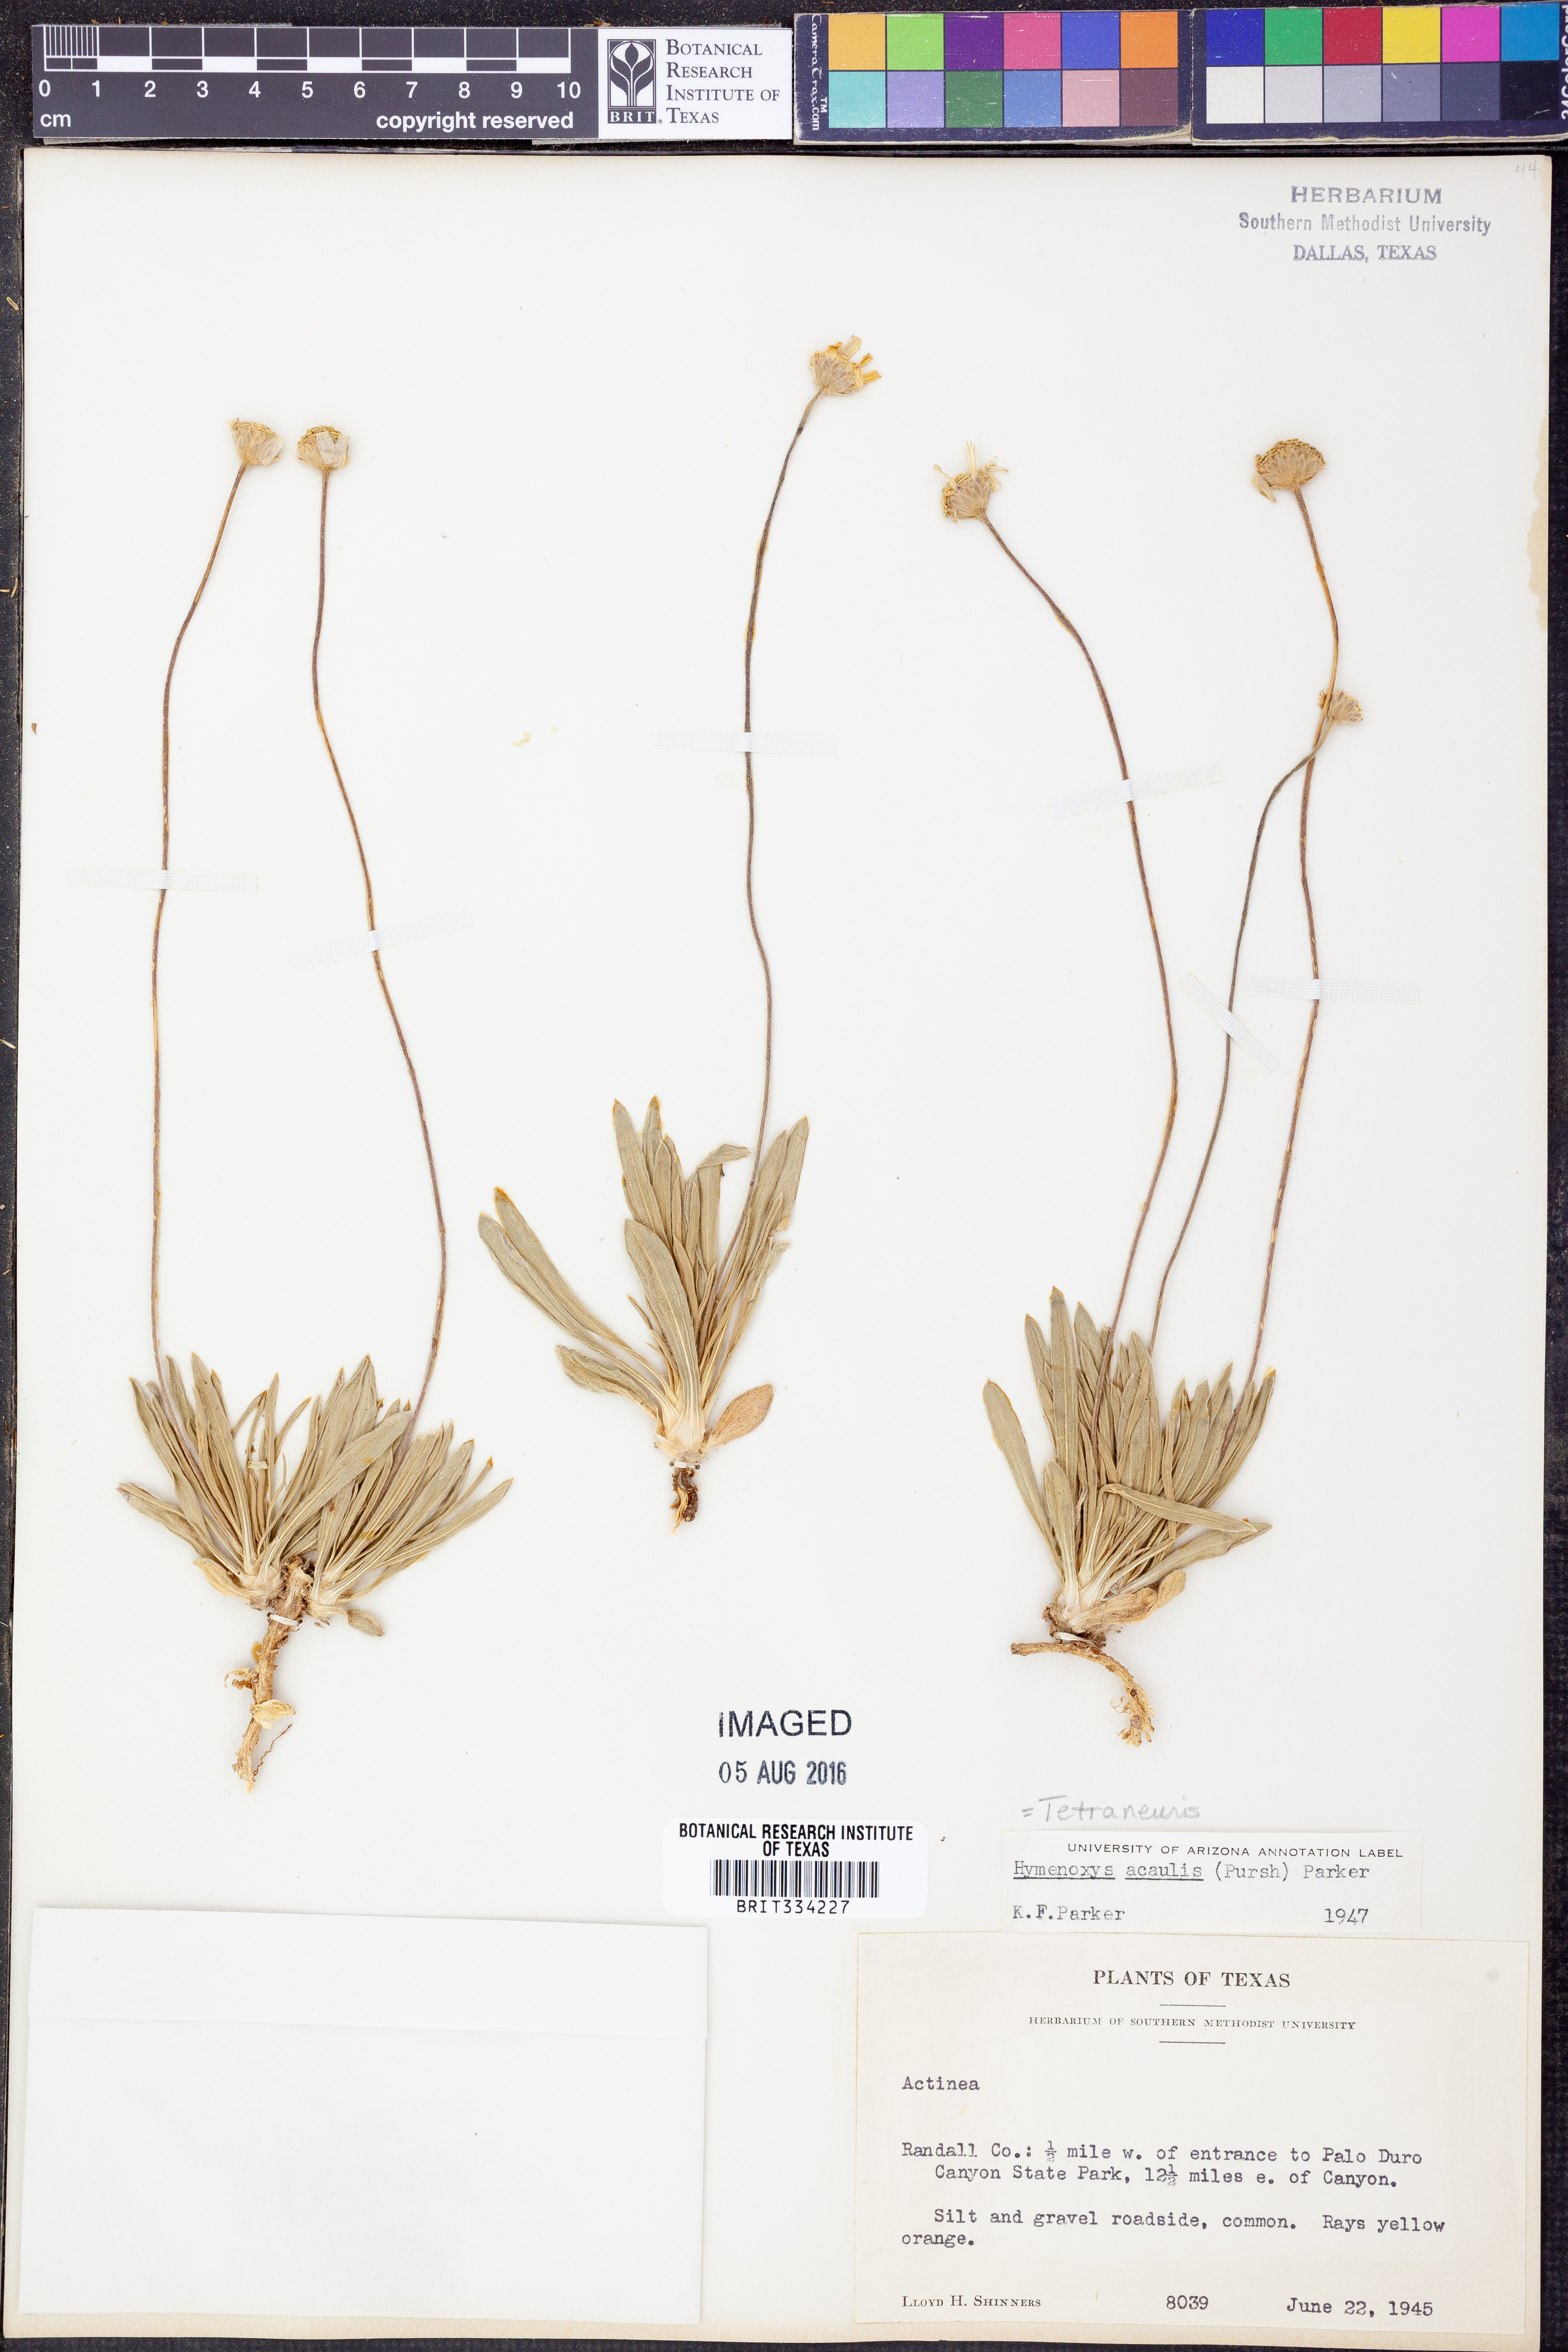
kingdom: Plantae
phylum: Tracheophyta
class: Magnoliopsida
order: Asterales
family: Asteraceae
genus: Tetraneuris
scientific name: Tetraneuris acaulis
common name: Butte marigold
